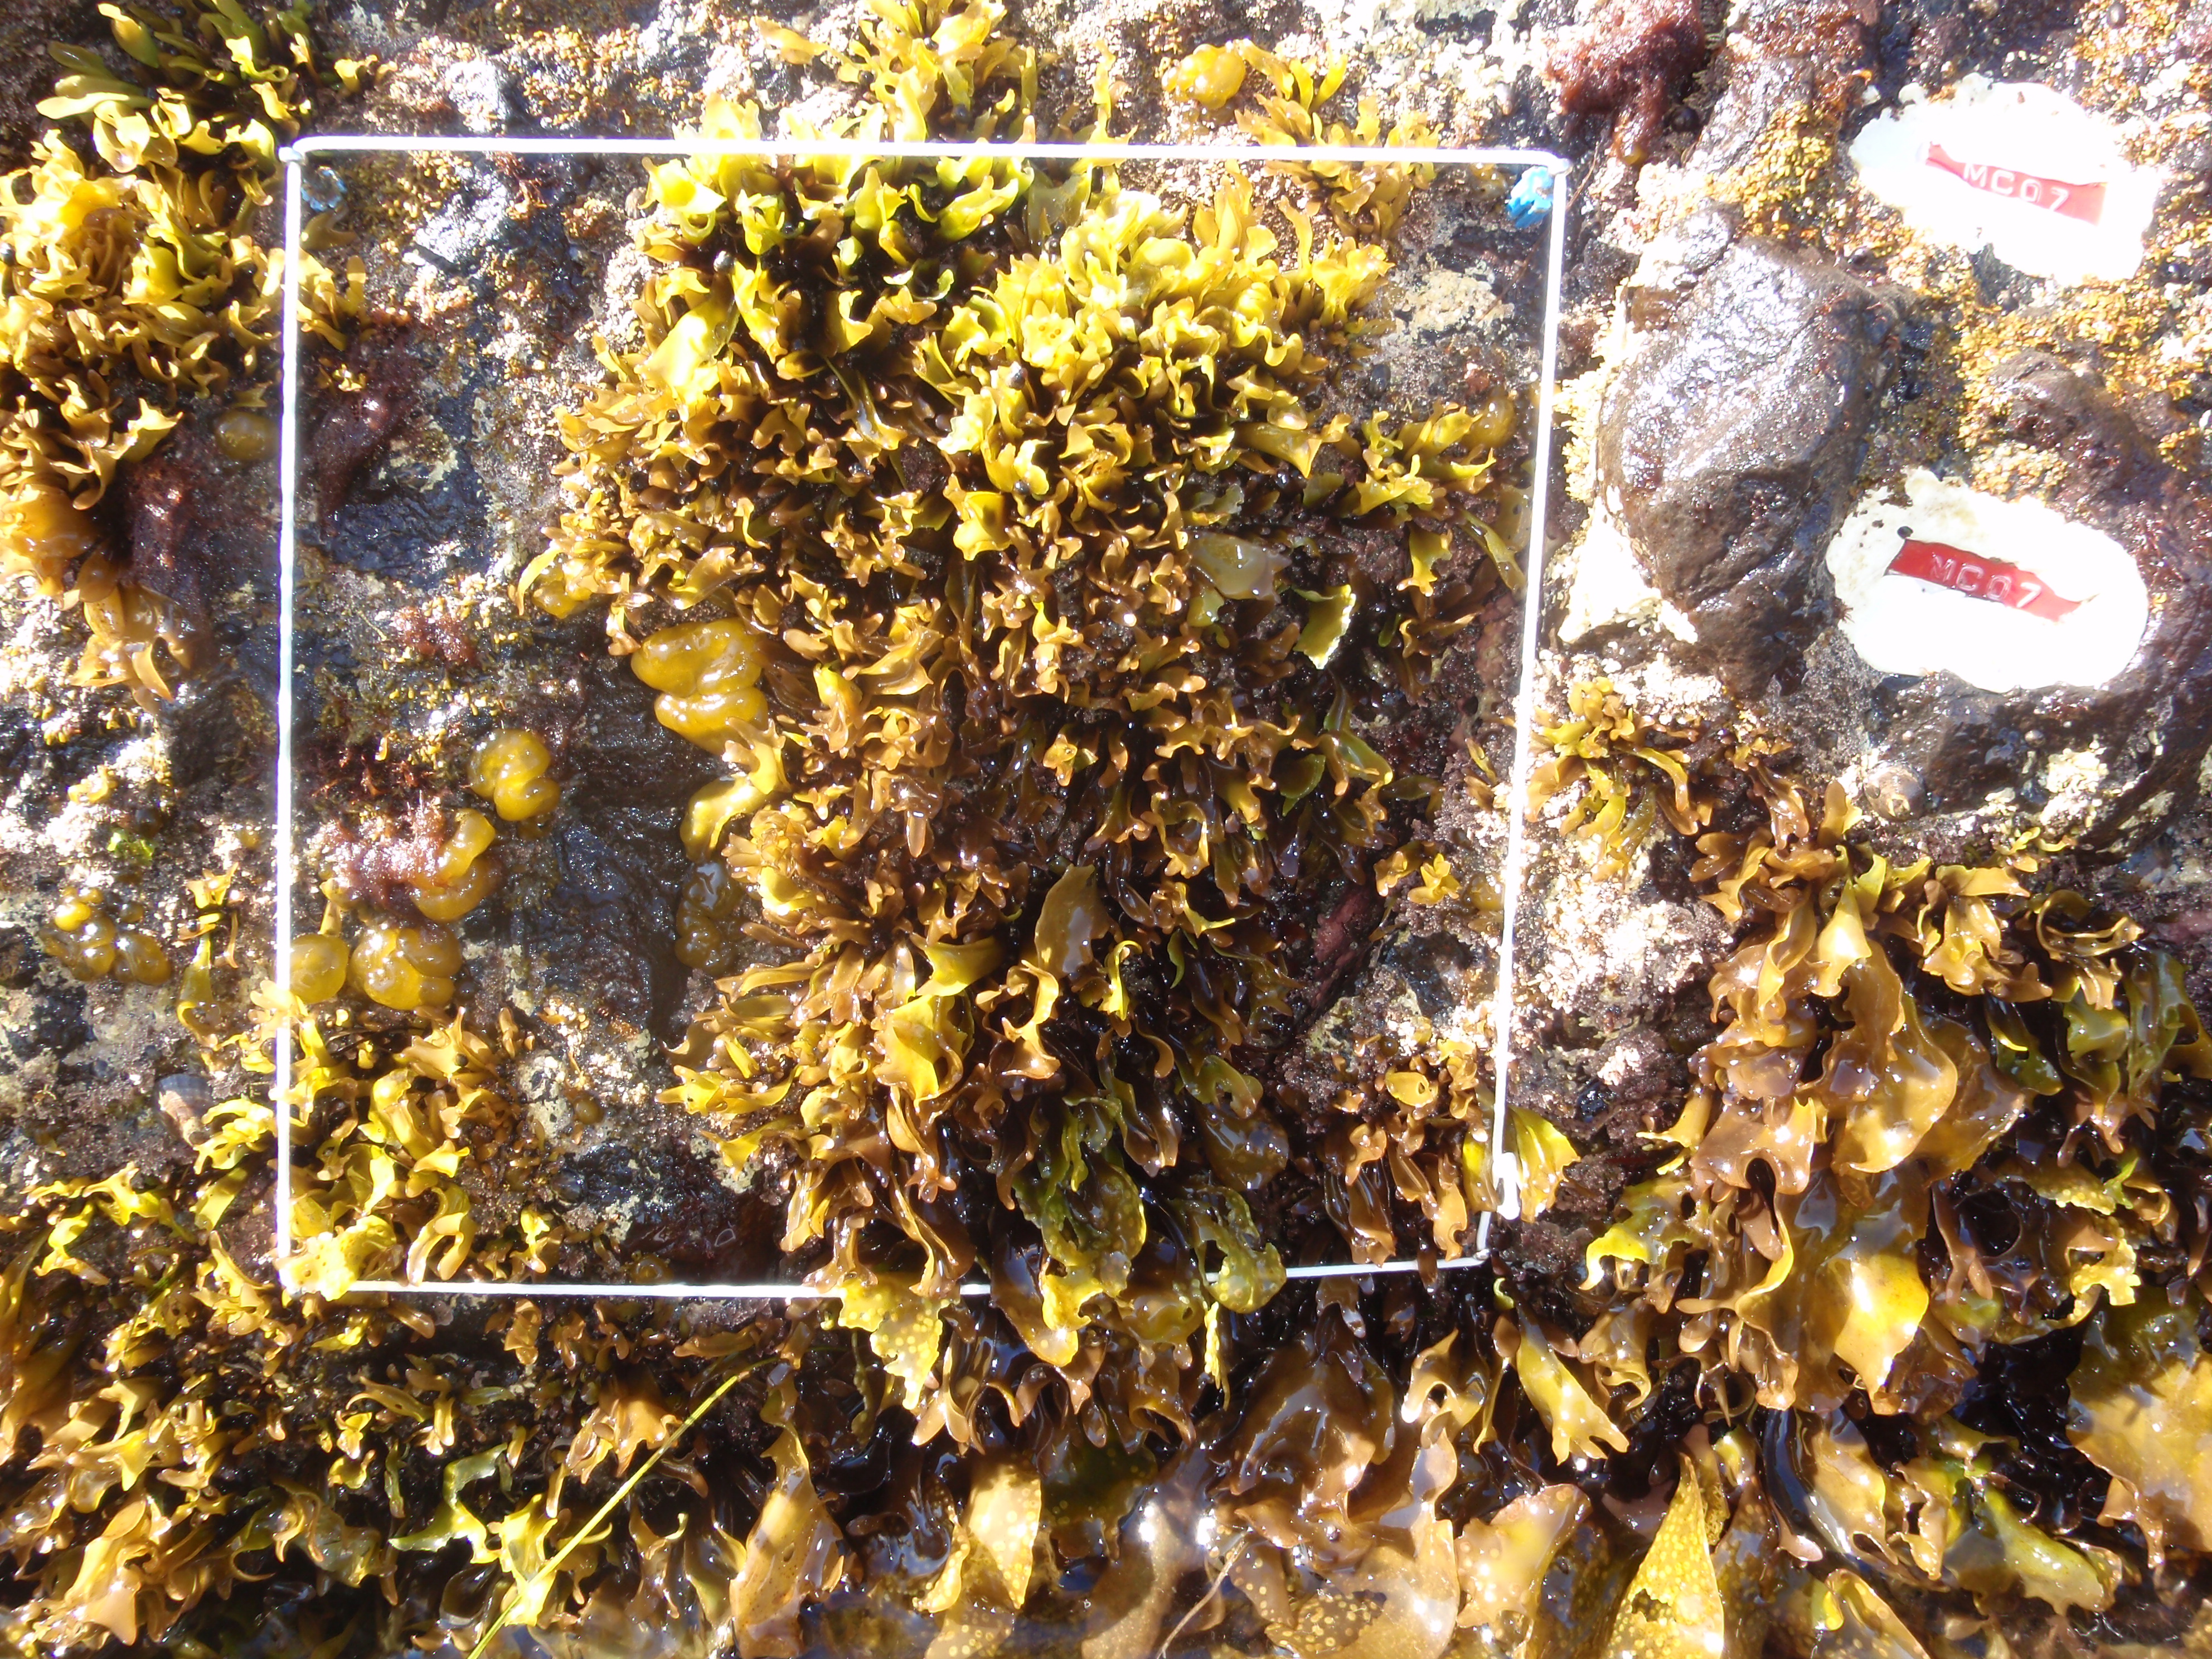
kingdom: Chromista
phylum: Ochrophyta
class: Phaeophyceae
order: Scytosiphonales
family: Scytosiphonaceae
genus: Analipus
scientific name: Analipus japonicus
